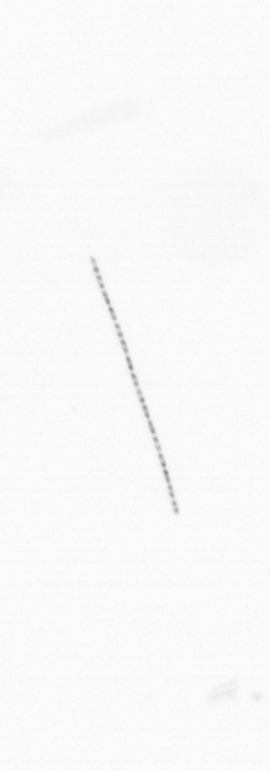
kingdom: Chromista
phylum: Ochrophyta
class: Bacillariophyceae
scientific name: Bacillariophyceae
